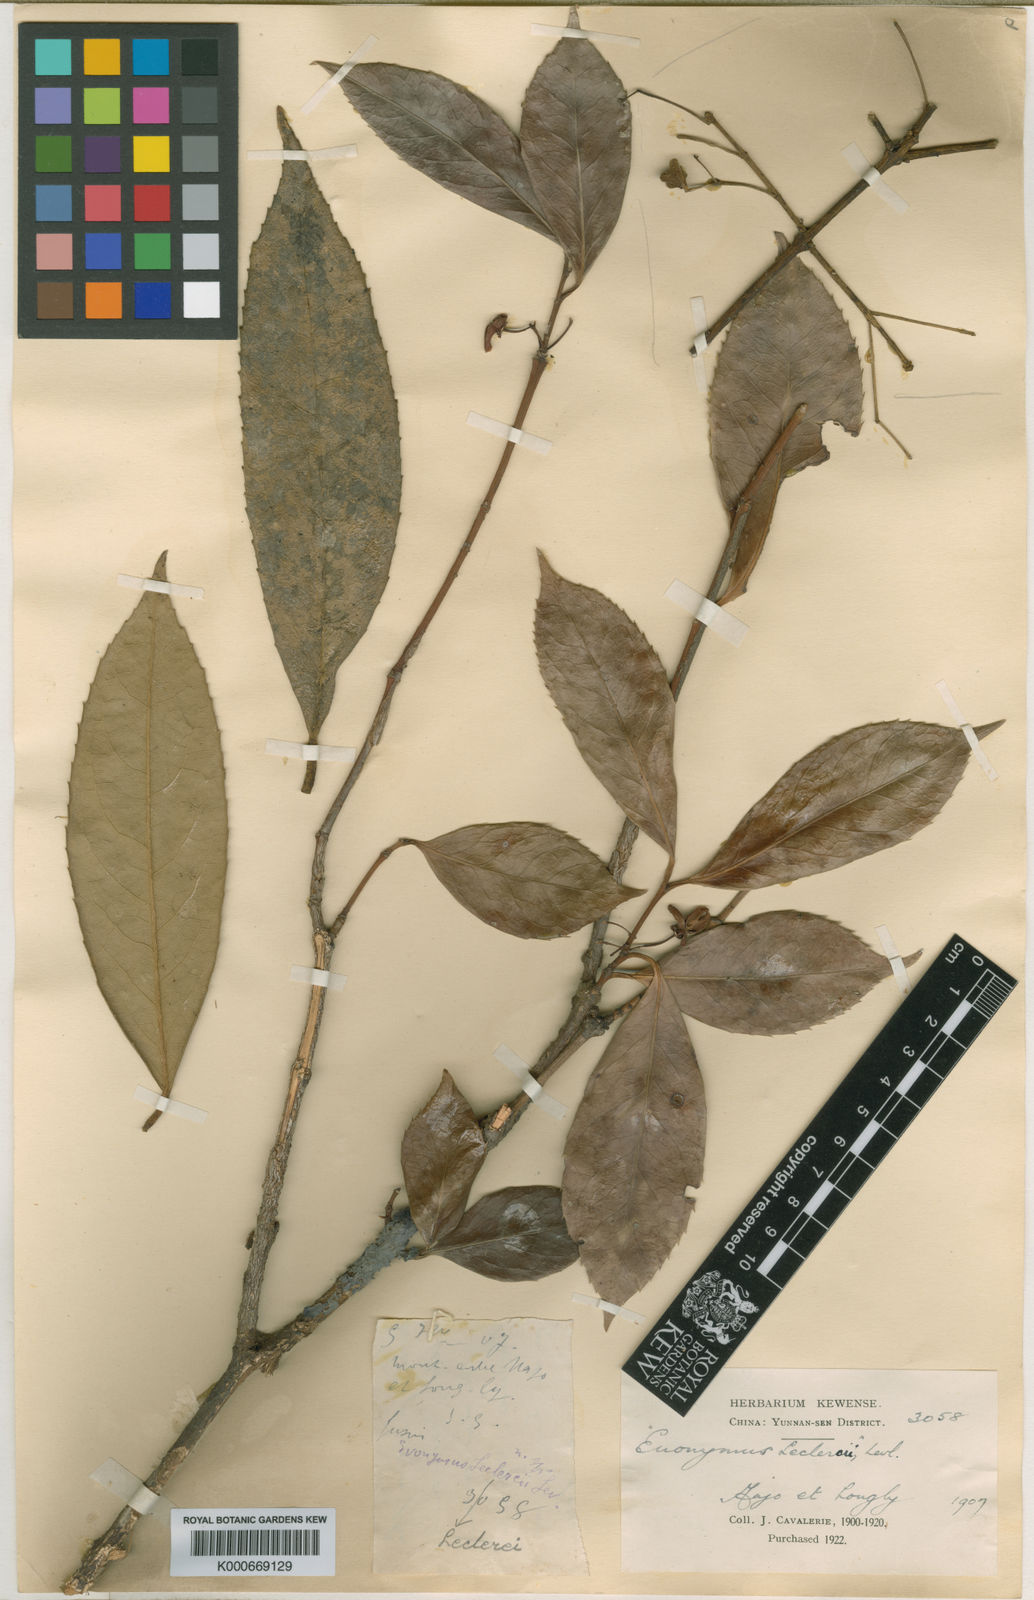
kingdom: Plantae
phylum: Tracheophyta
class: Magnoliopsida
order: Celastrales
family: Celastraceae
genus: Euonymus
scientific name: Euonymus
